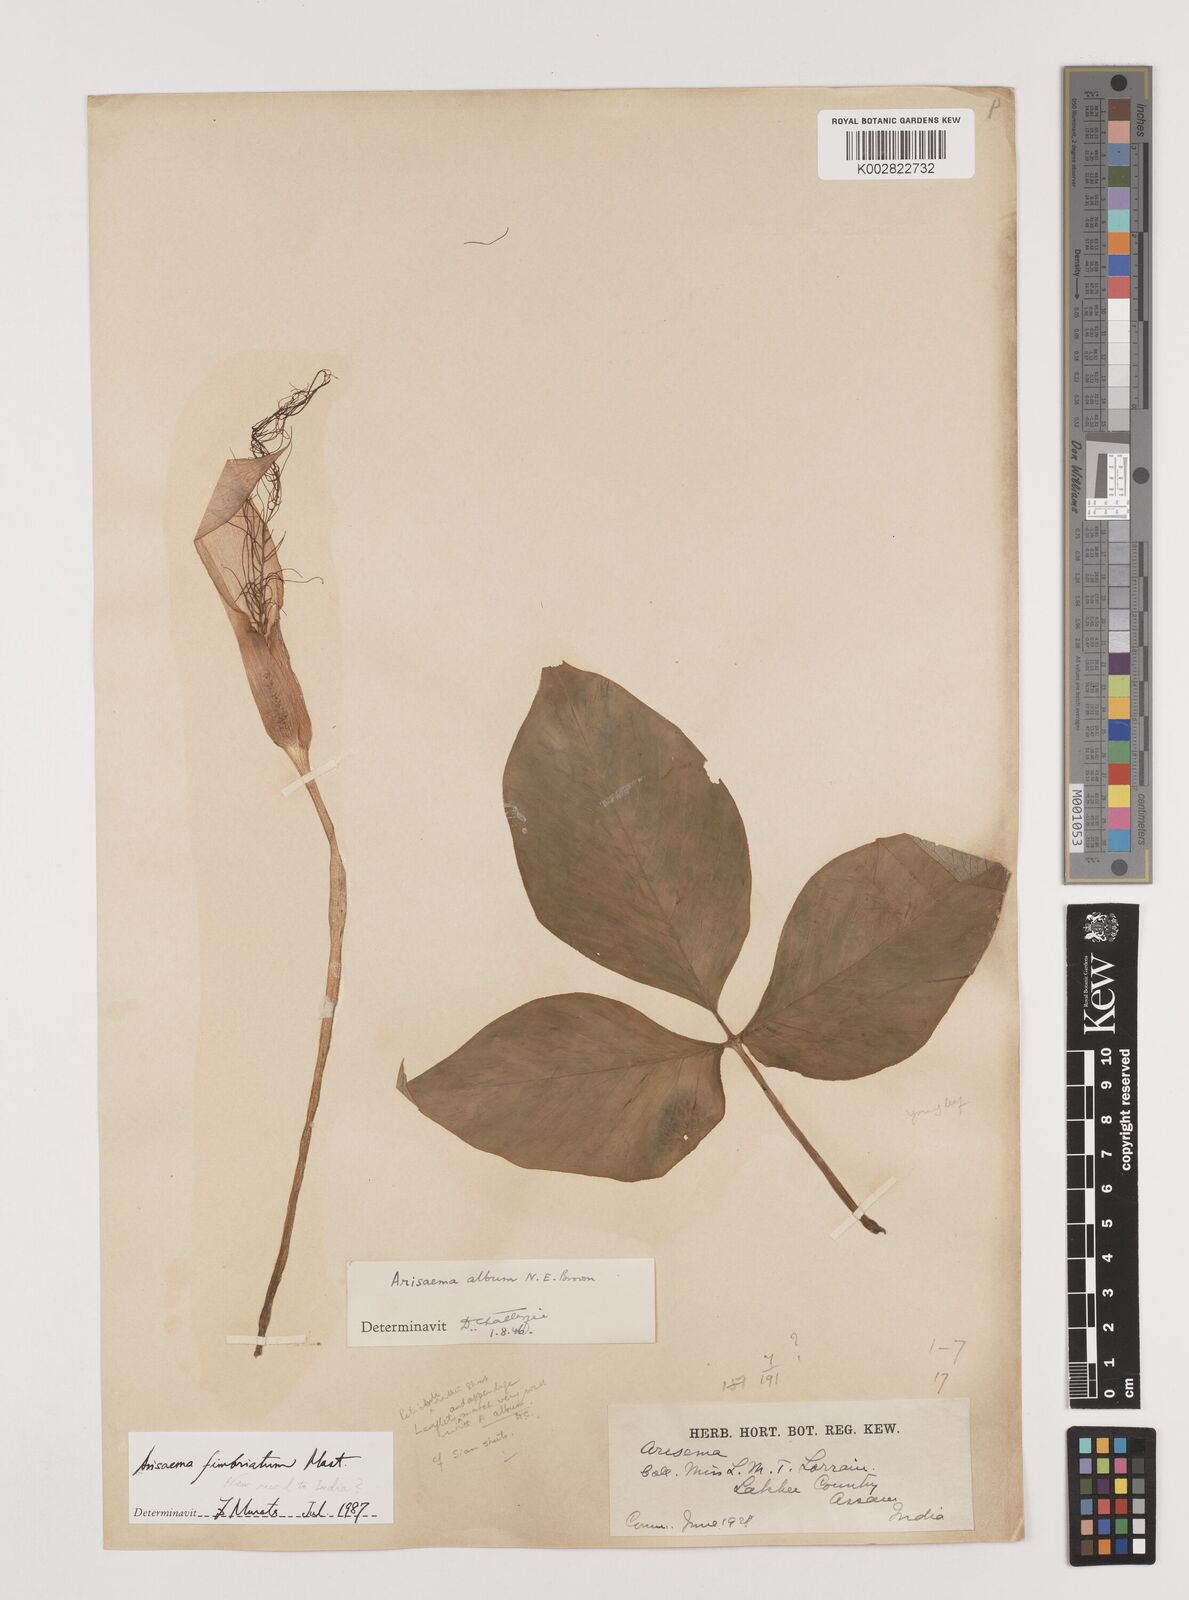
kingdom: Plantae
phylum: Tracheophyta
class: Liliopsida
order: Alismatales
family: Araceae
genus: Arisaema
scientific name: Arisaema album
